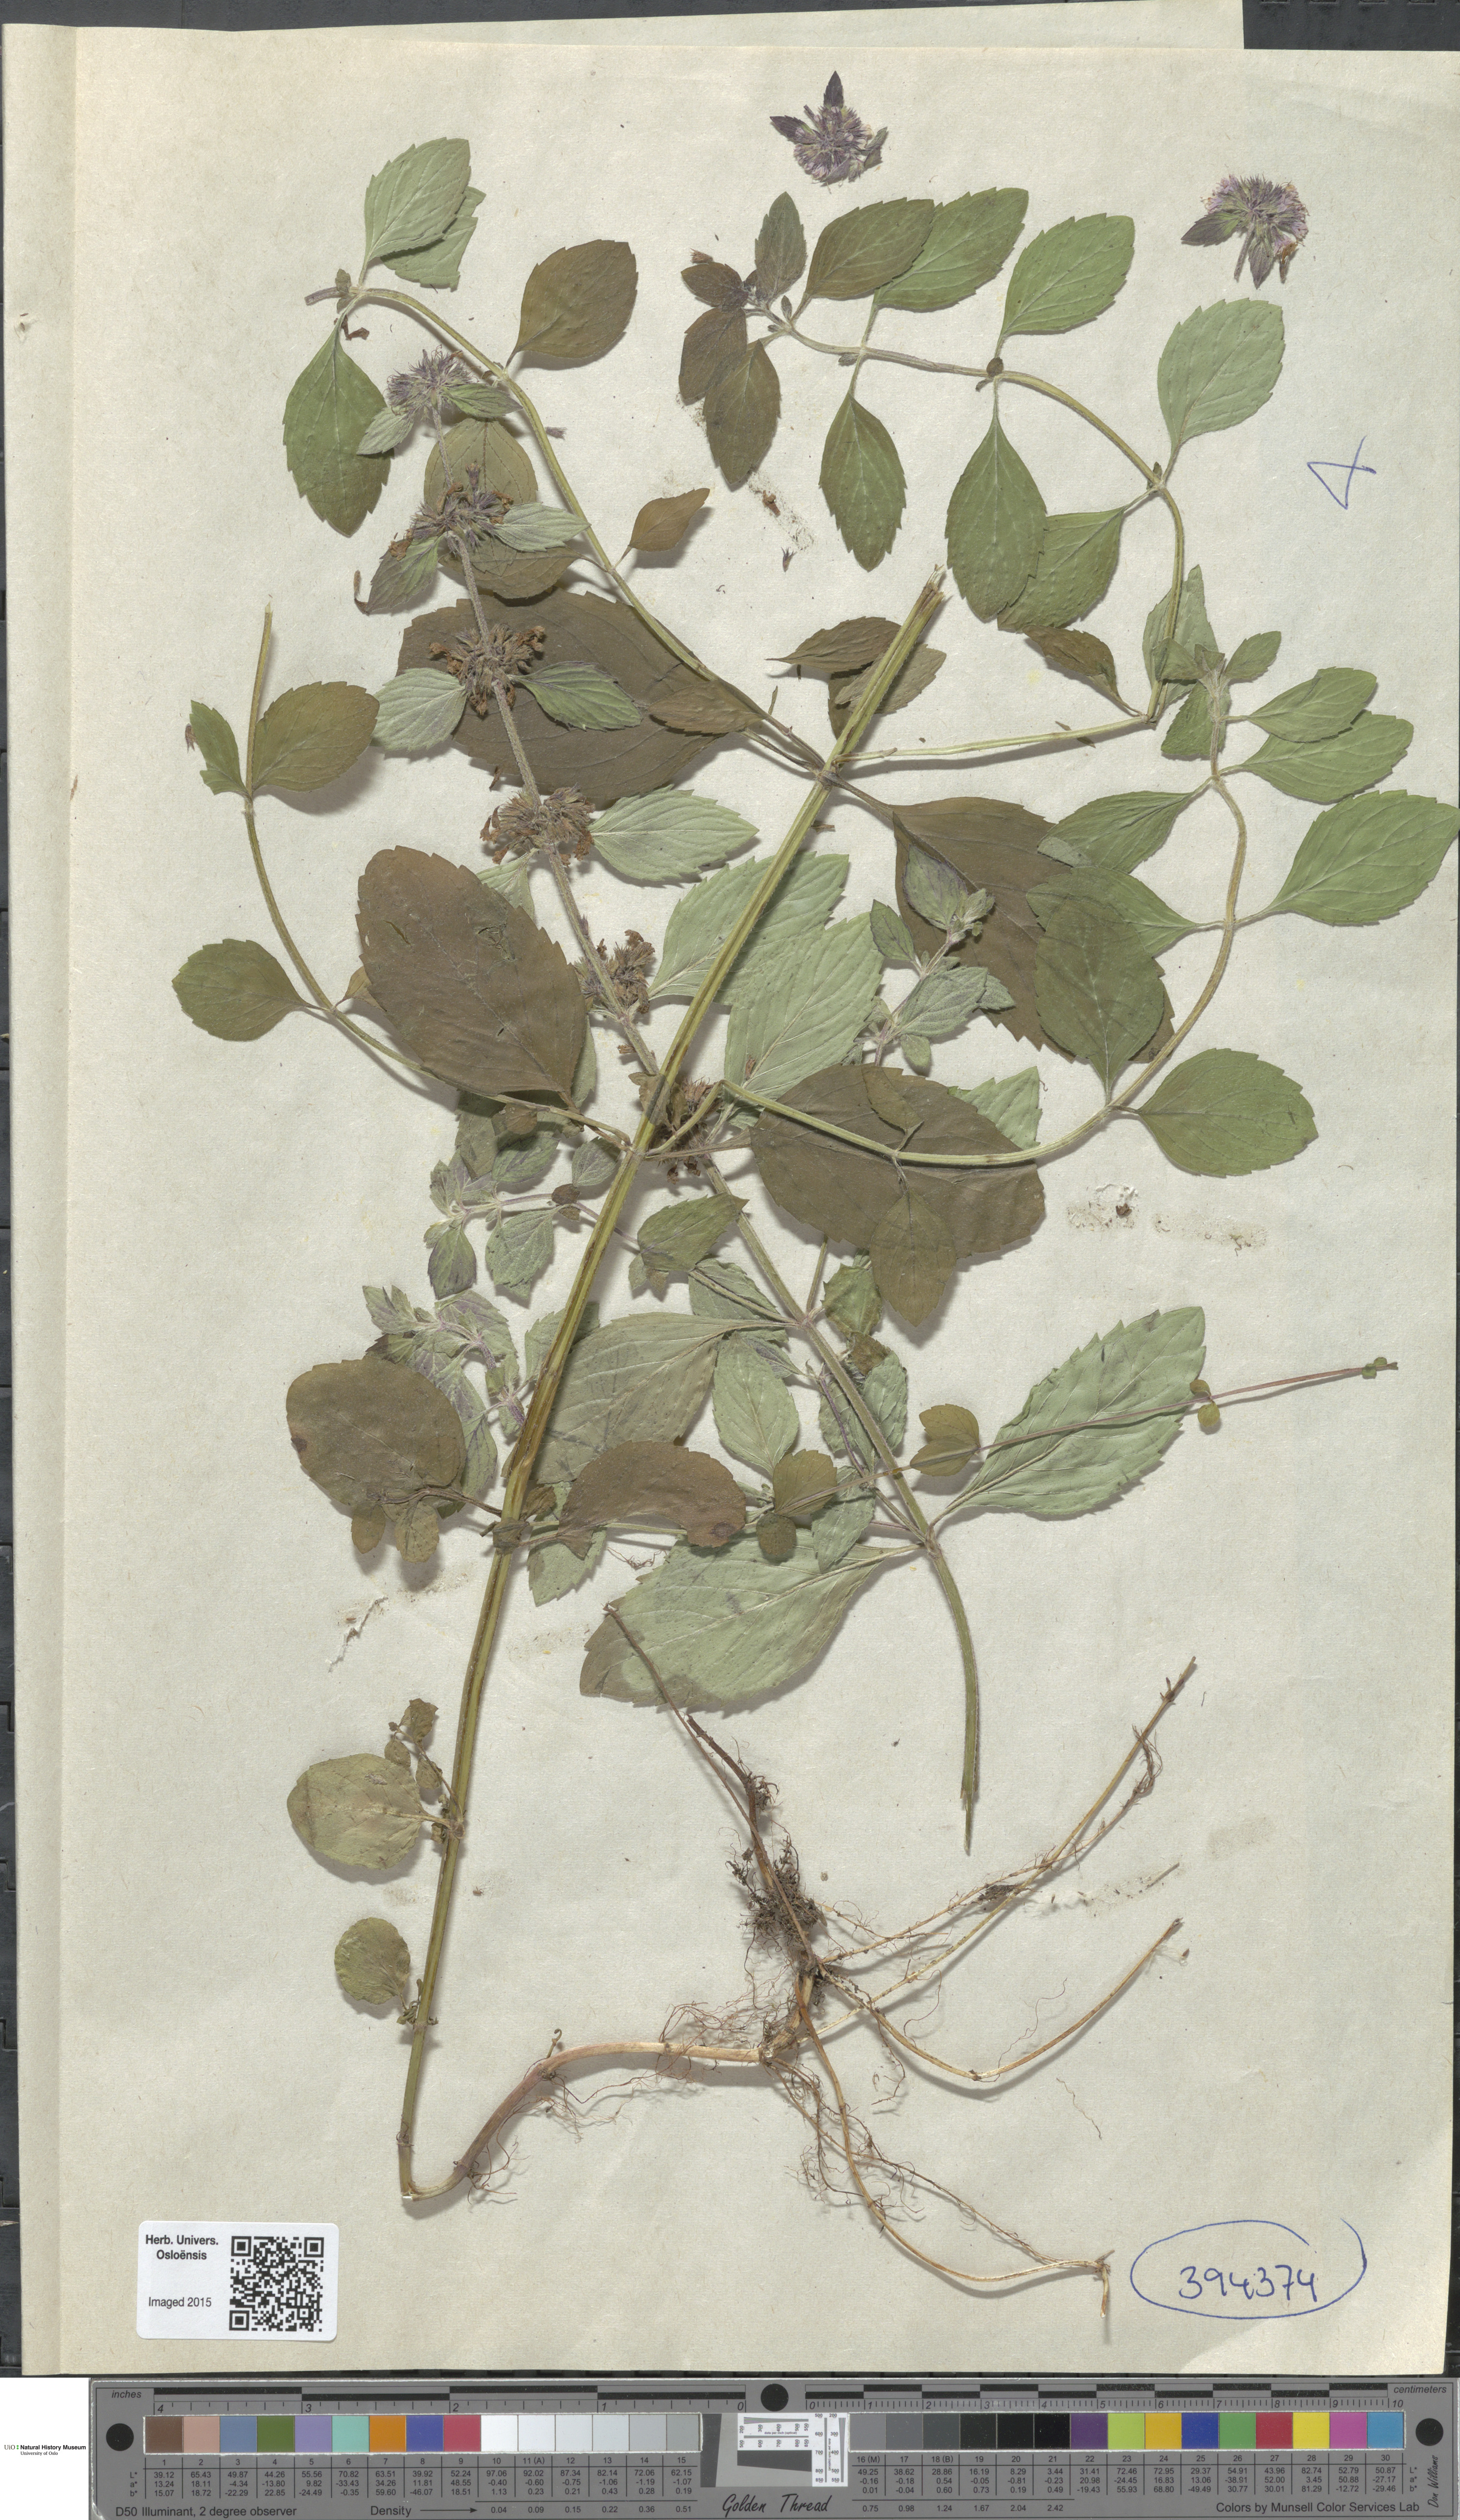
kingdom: Plantae
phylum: Tracheophyta
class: Magnoliopsida
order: Lamiales
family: Lamiaceae
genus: Mentha
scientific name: Mentha verticillata
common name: Mint
